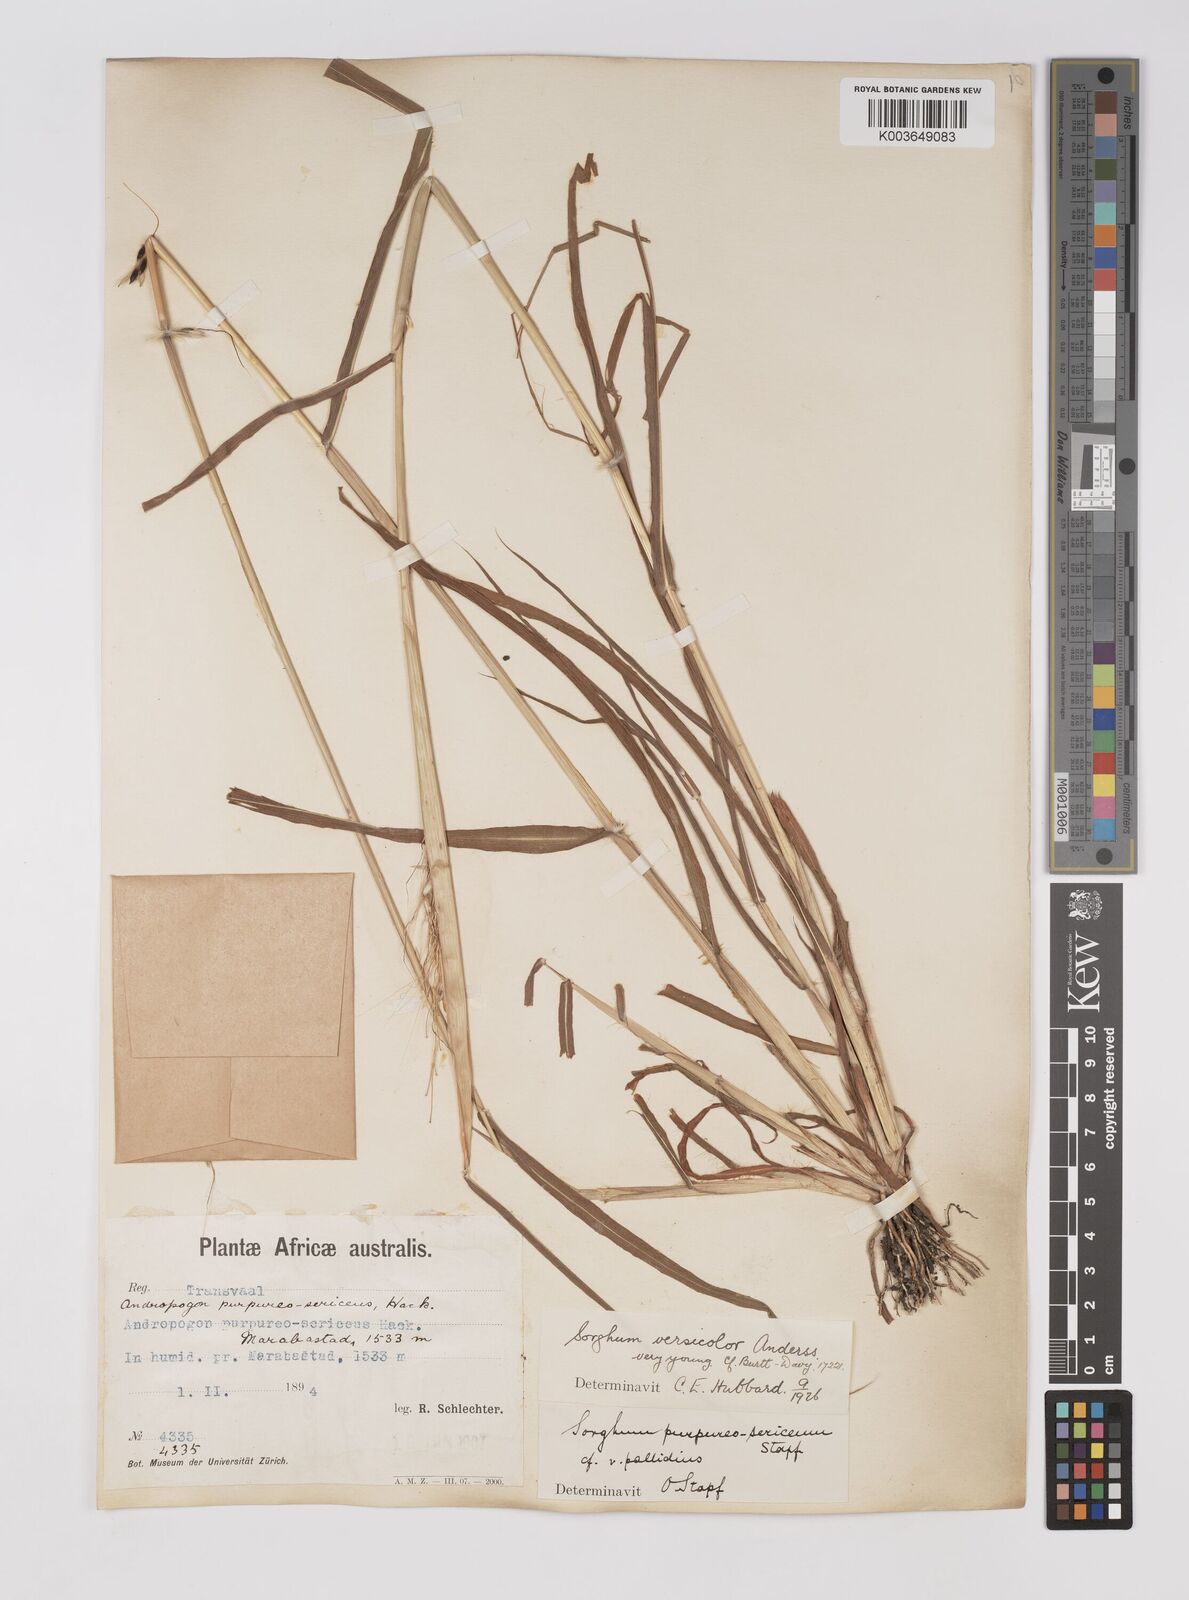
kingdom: Plantae
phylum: Tracheophyta
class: Liliopsida
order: Poales
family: Poaceae
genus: Sarga
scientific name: Sarga versicolor
